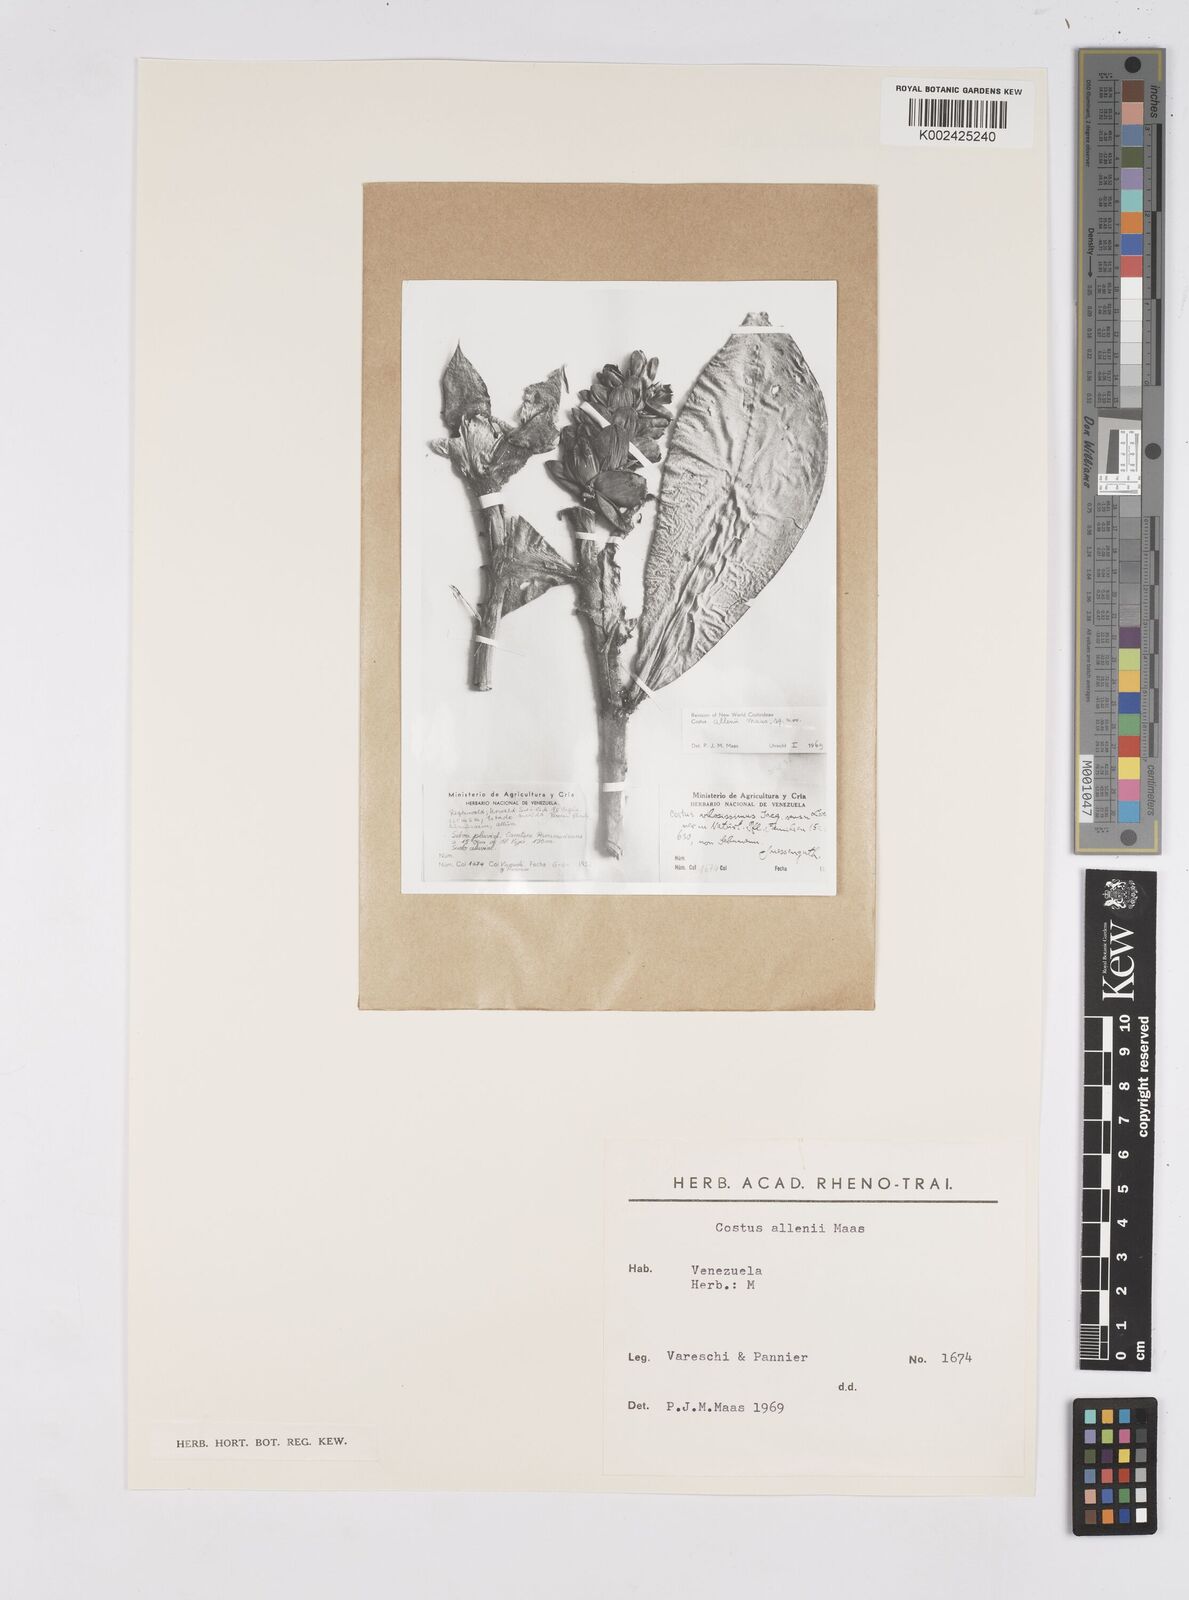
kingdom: Plantae
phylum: Tracheophyta
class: Liliopsida
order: Zingiberales
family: Costaceae
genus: Costus
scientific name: Costus allenii
